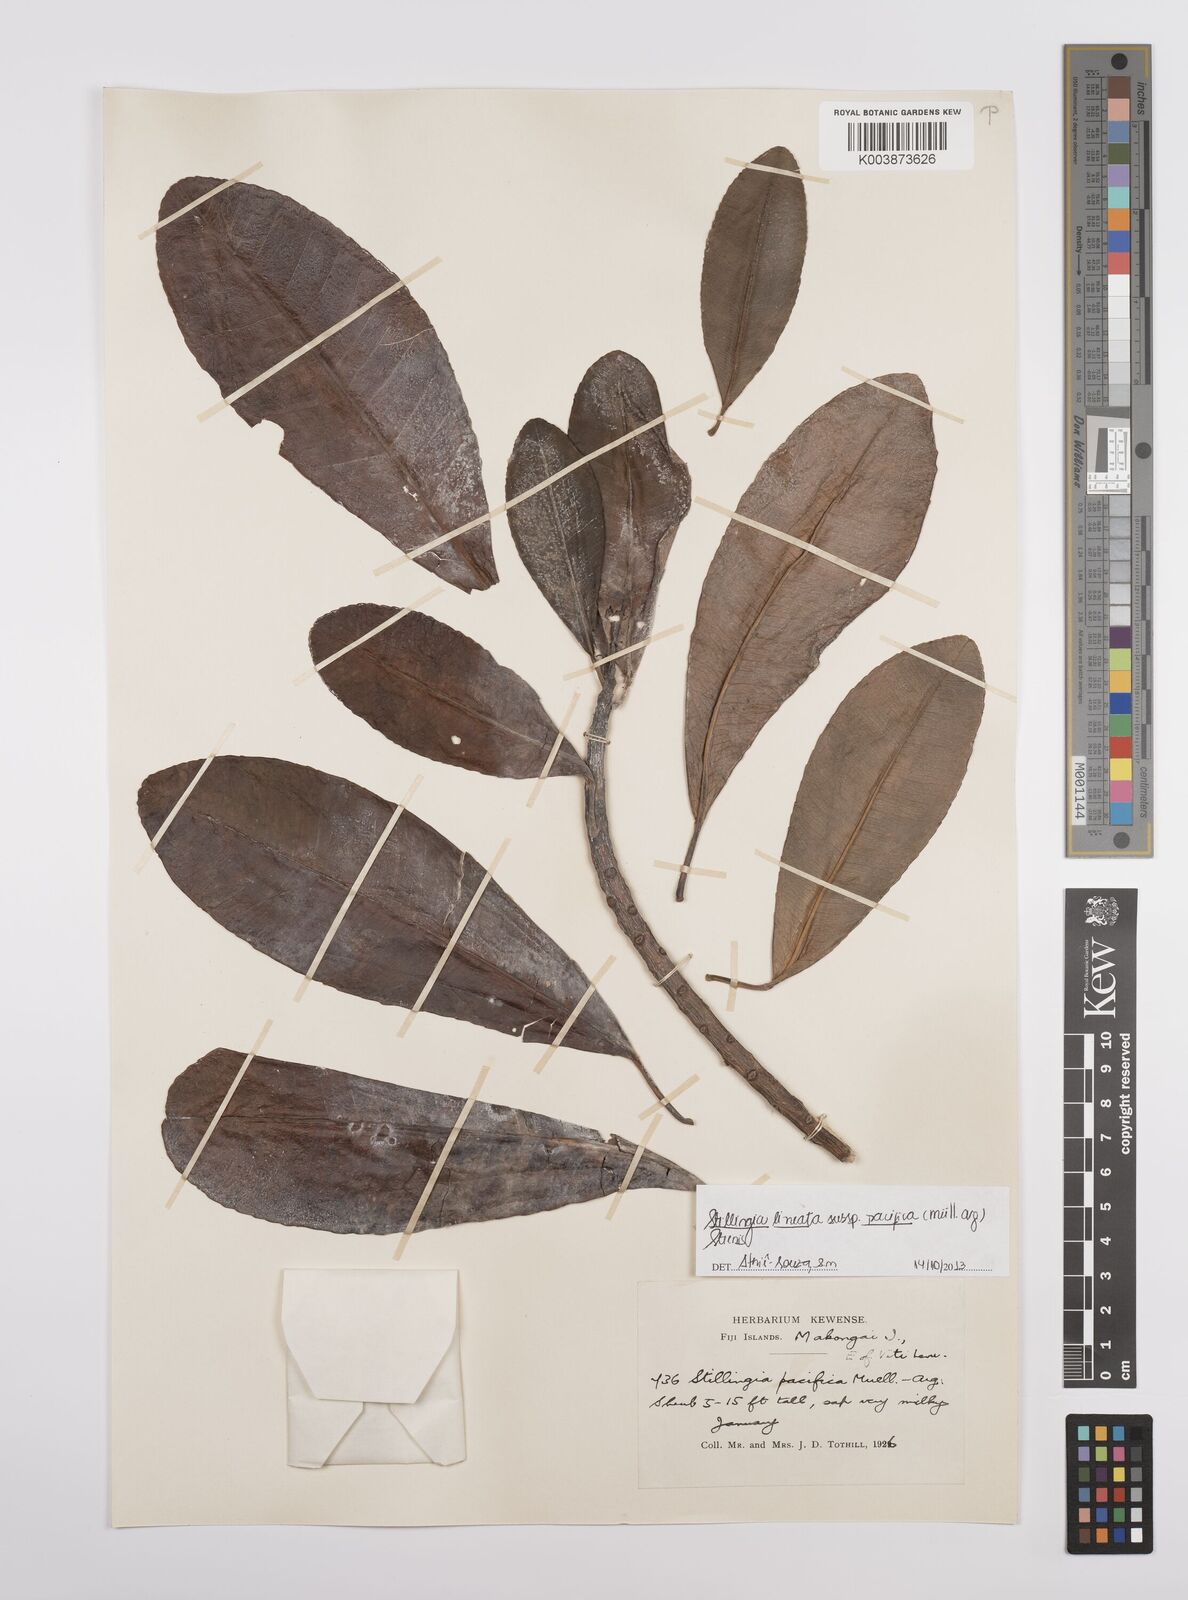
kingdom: Plantae
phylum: Tracheophyta
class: Magnoliopsida
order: Malpighiales
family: Euphorbiaceae
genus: Stillingia
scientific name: Stillingia lineata
